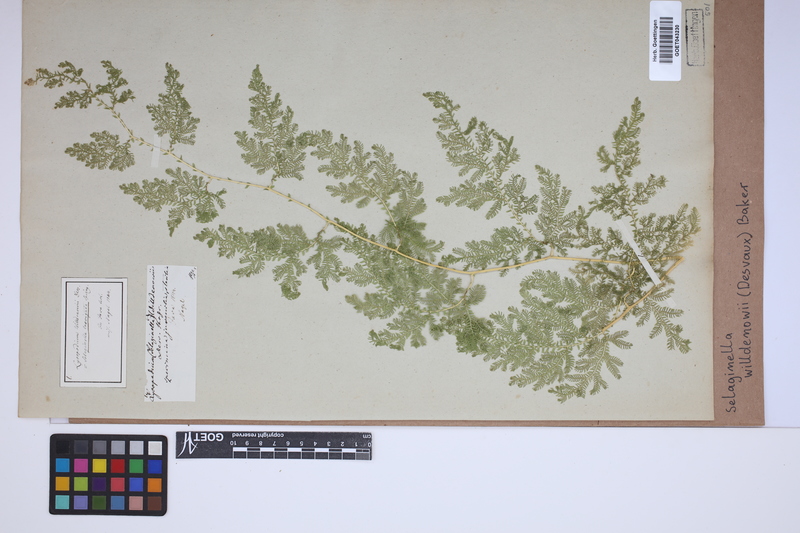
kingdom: Plantae
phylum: Tracheophyta
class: Lycopodiopsida
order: Selaginellales
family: Selaginellaceae
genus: Selaginella
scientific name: Selaginella willdenowii
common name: Willdenow's spikemoss
